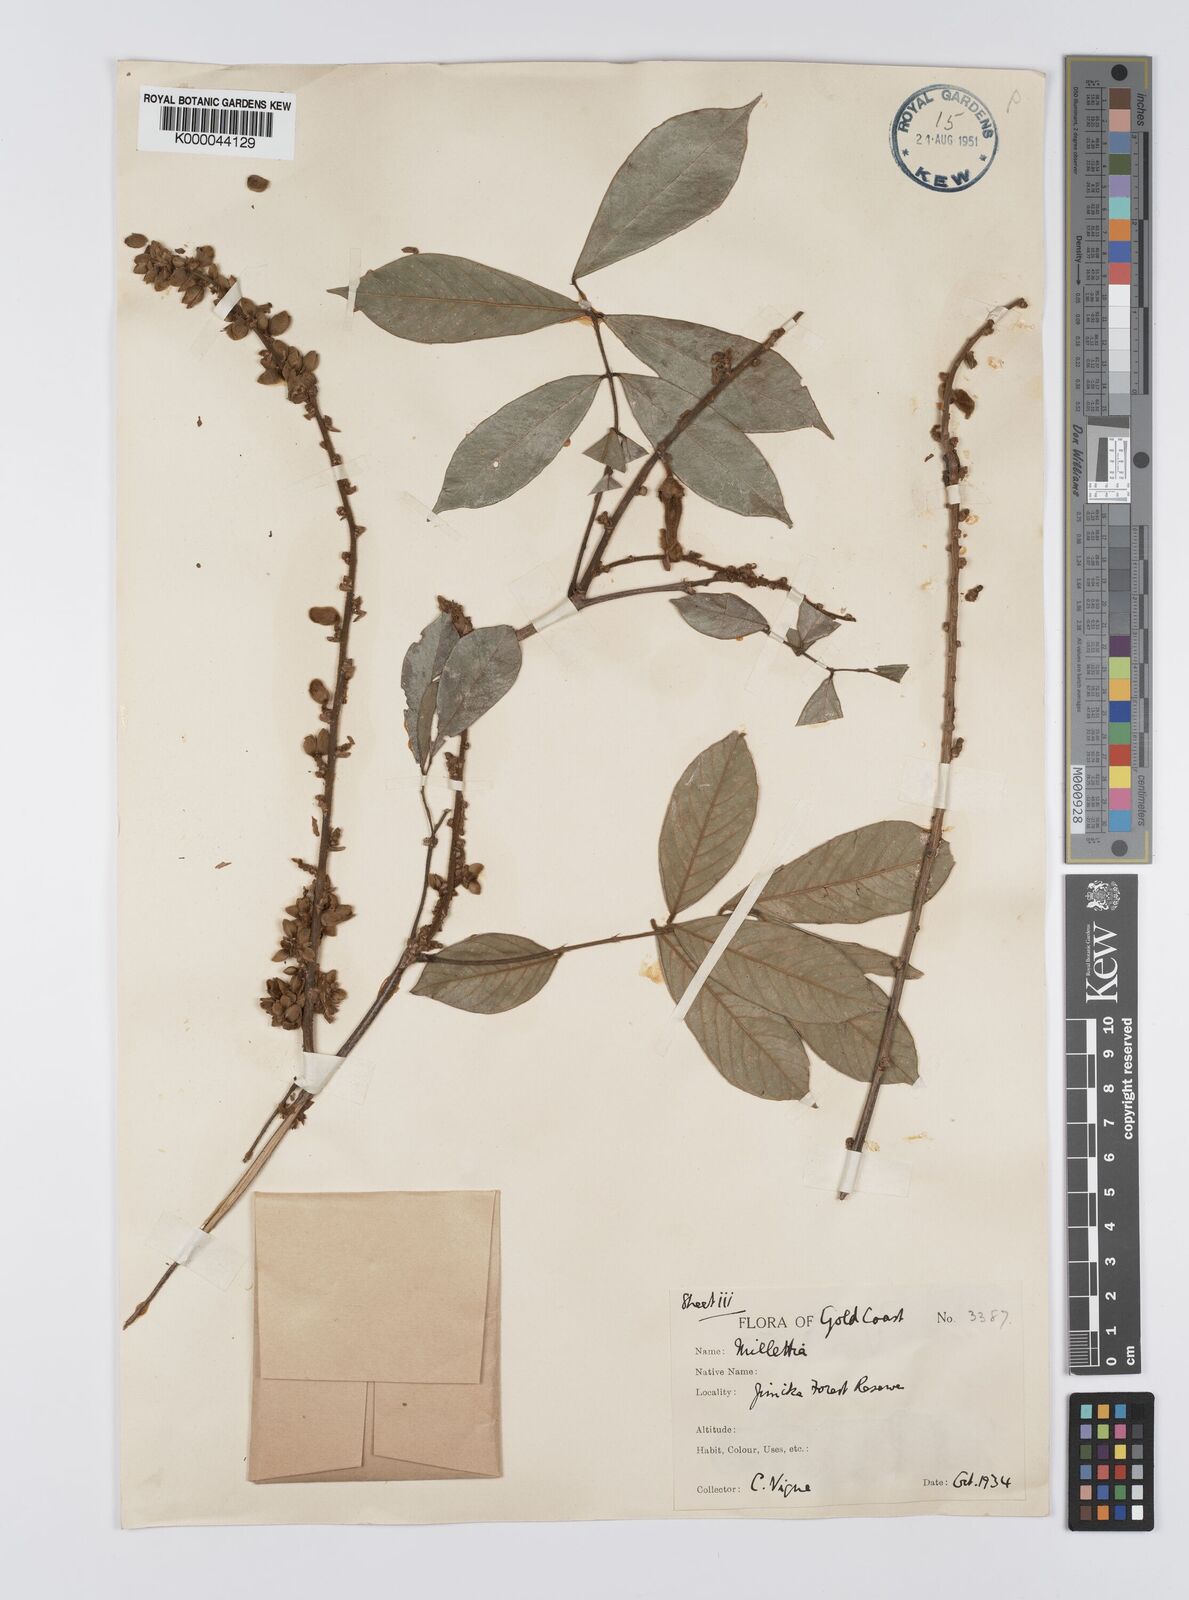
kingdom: Plantae
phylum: Tracheophyta
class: Magnoliopsida
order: Fabales
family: Fabaceae
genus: Platysepalum
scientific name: Platysepalum hirsutum
